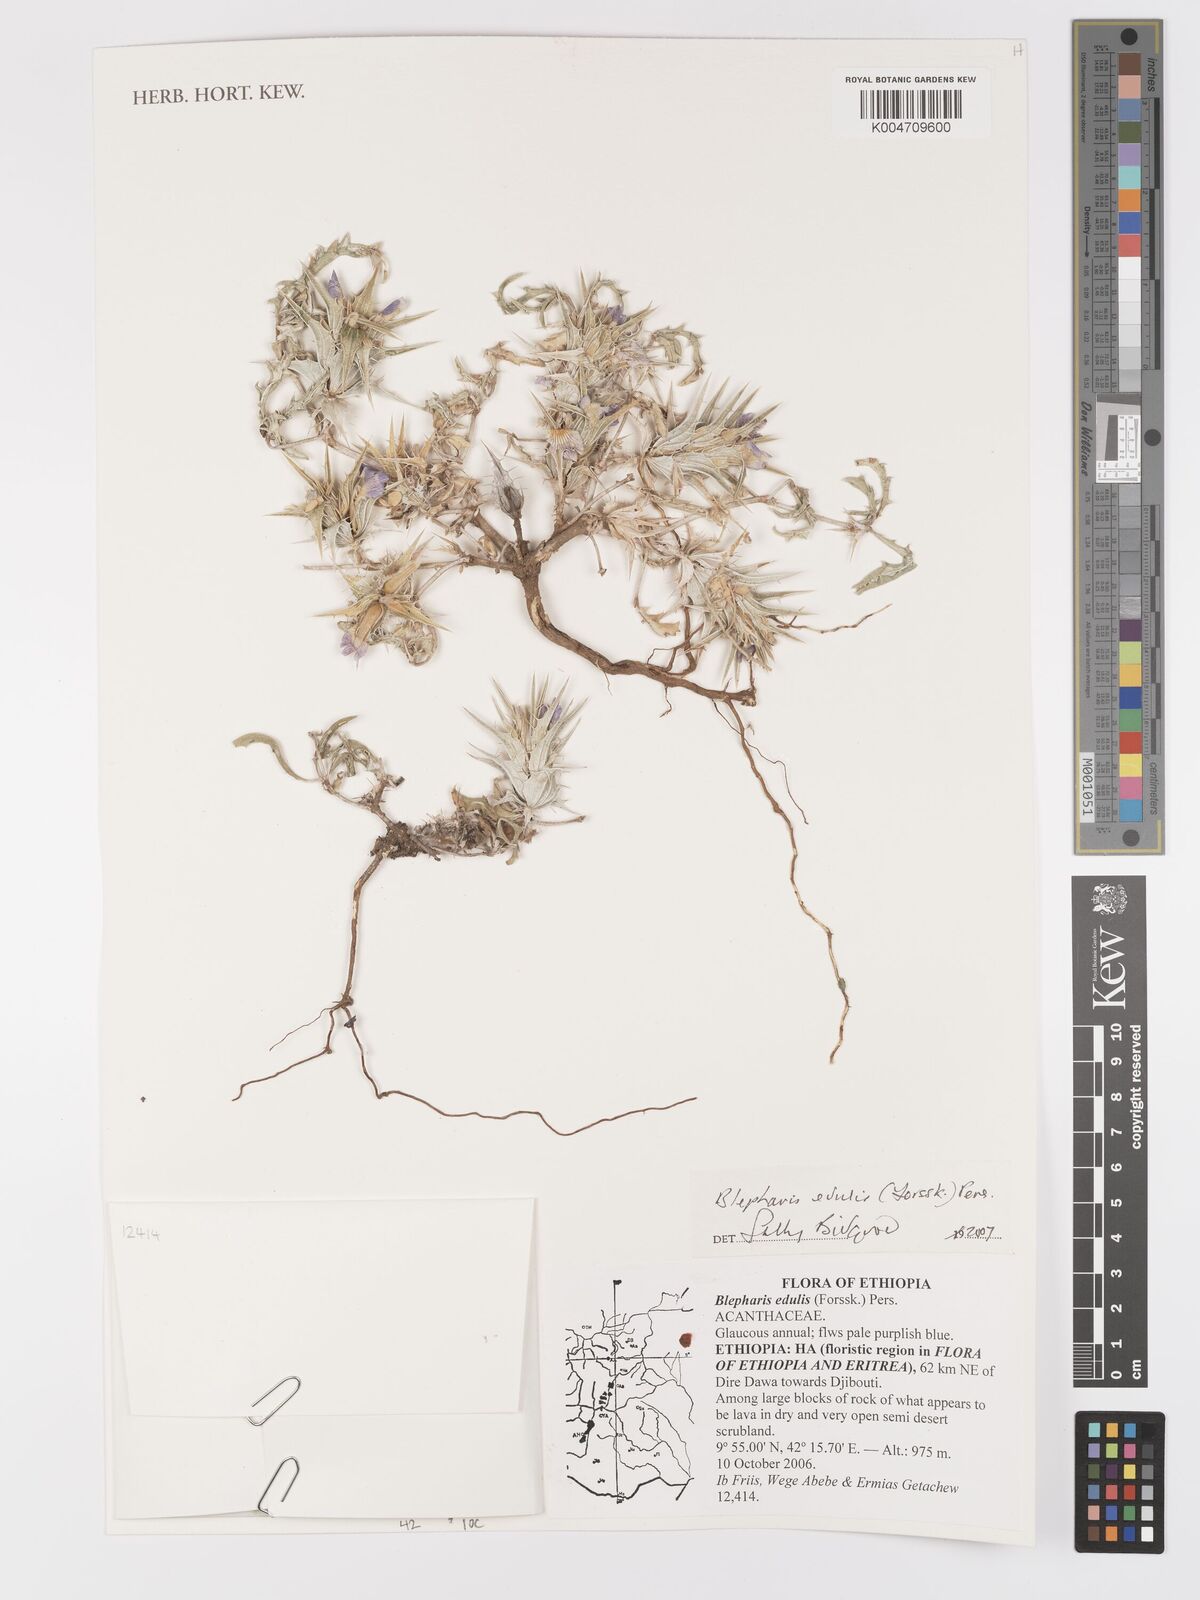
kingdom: Plantae
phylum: Tracheophyta
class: Magnoliopsida
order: Lamiales
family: Acanthaceae
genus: Blepharis
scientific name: Blepharis edulis
